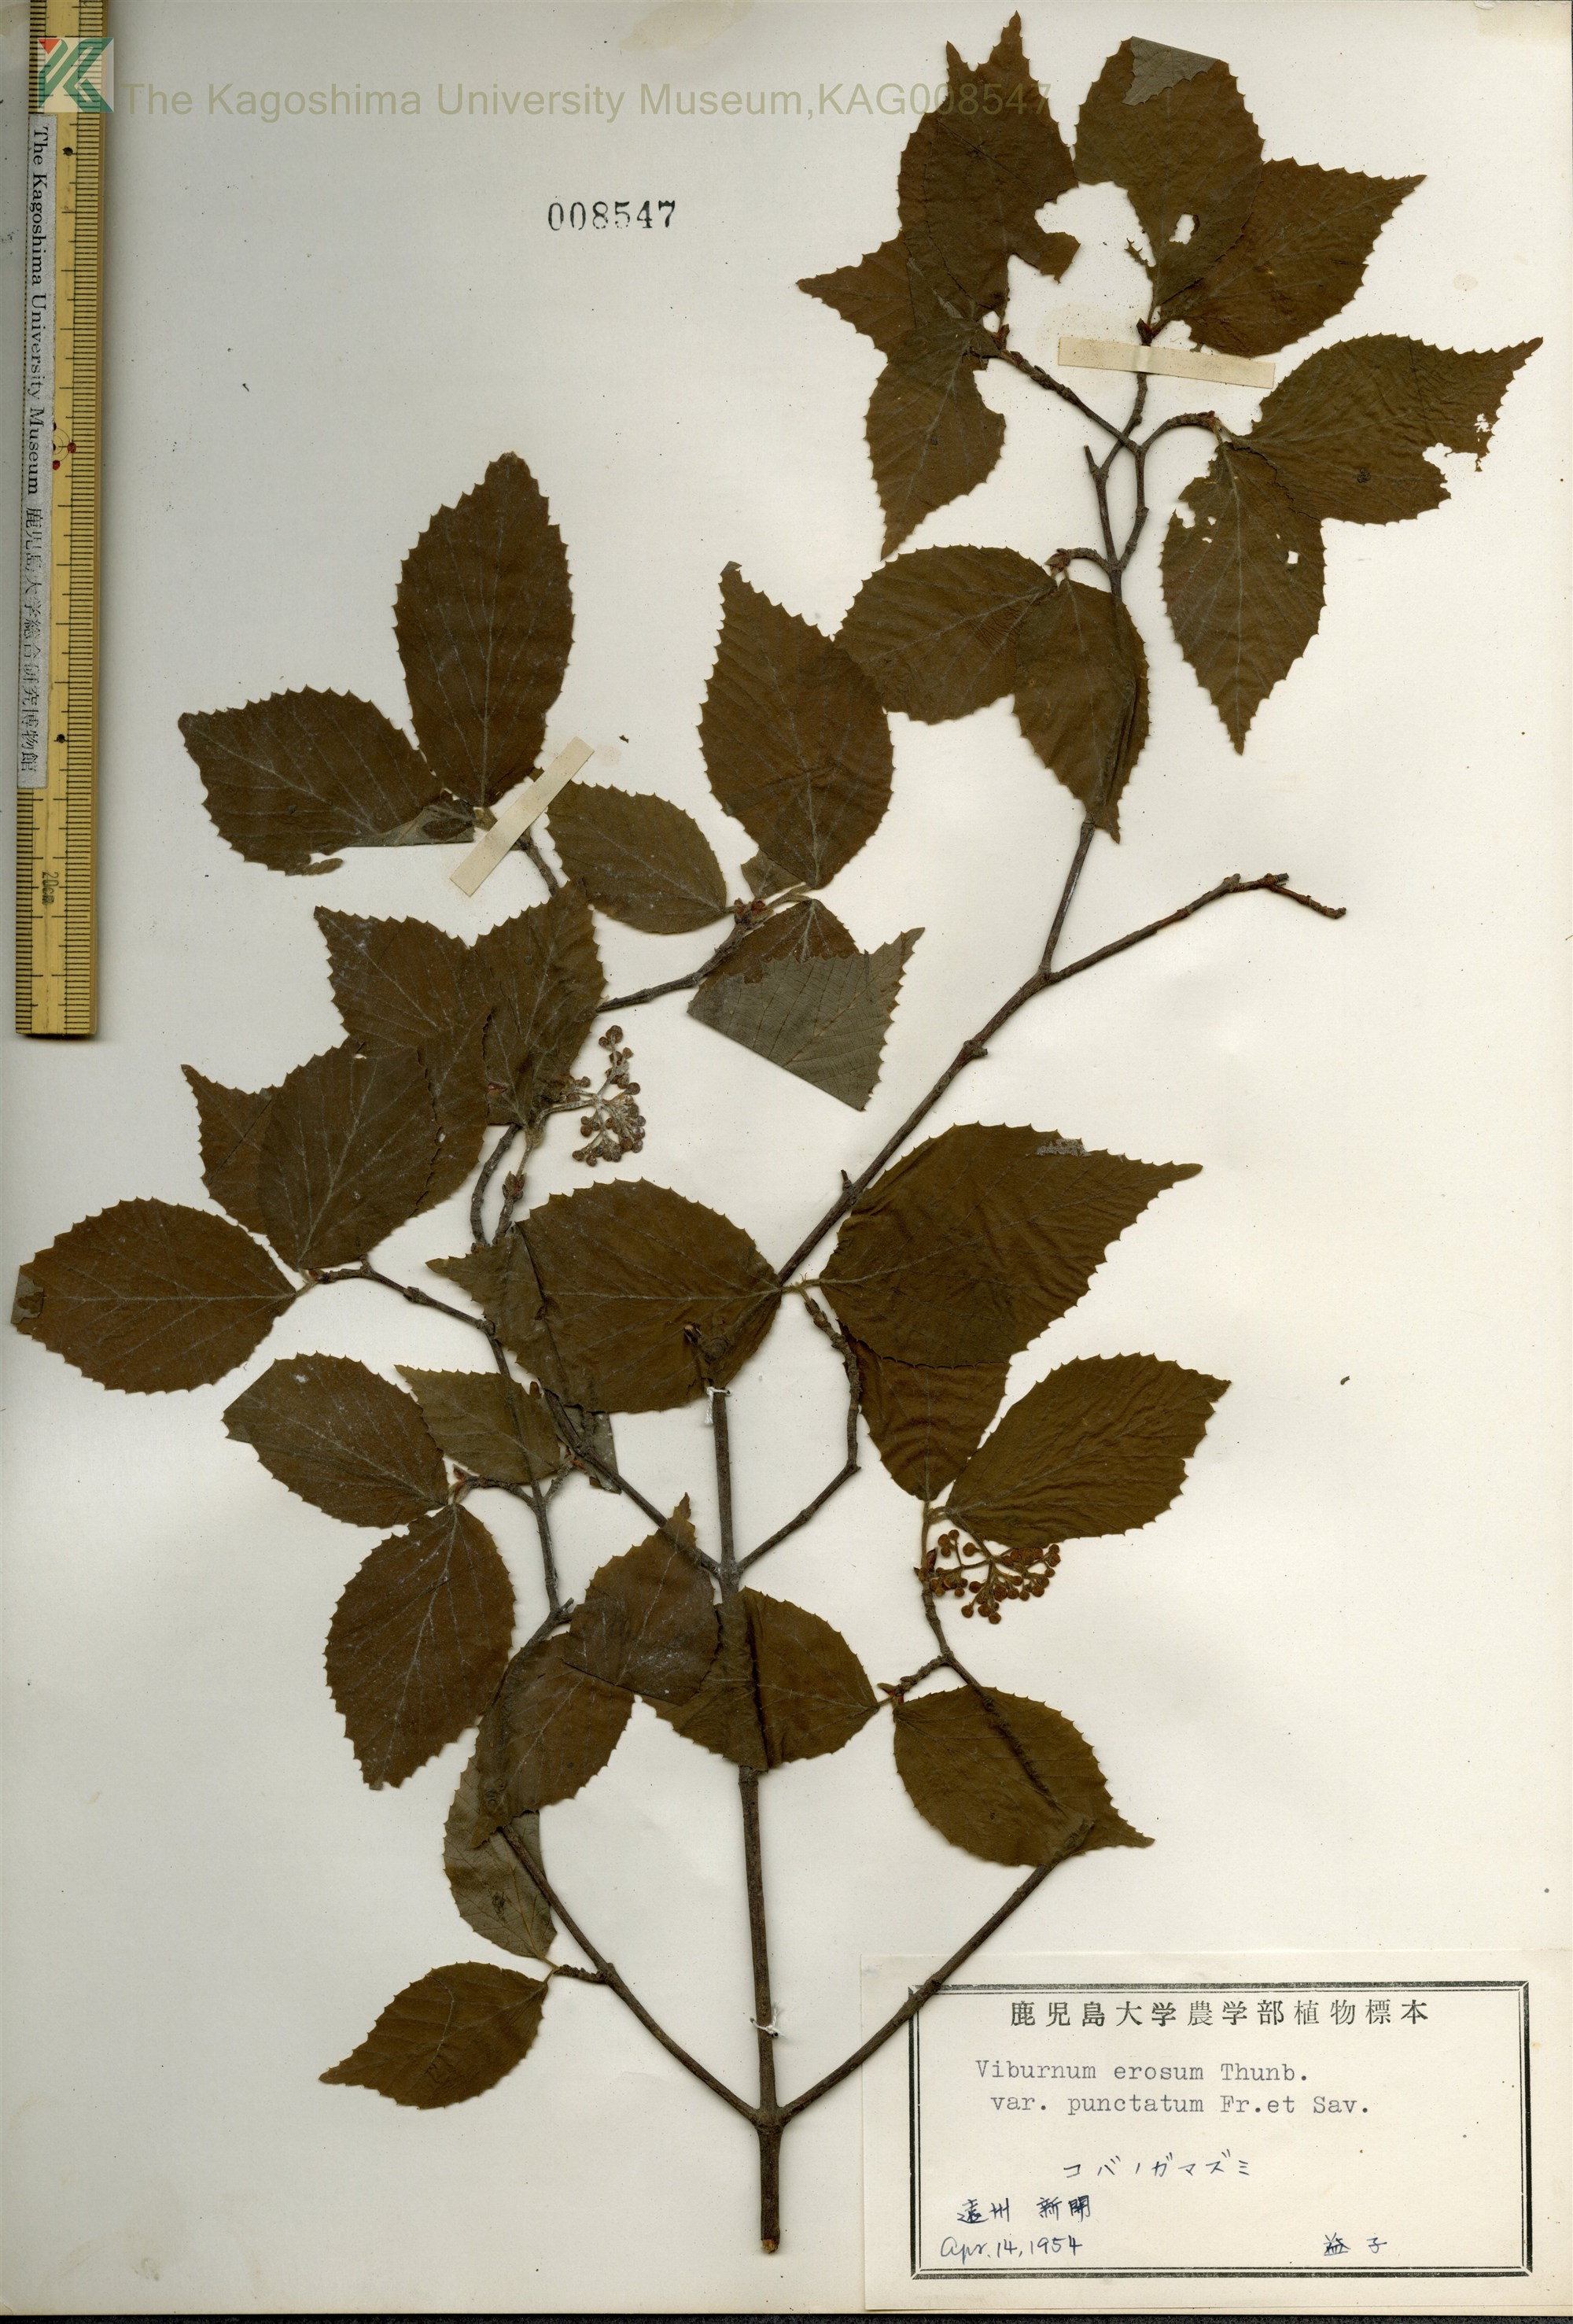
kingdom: Plantae
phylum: Tracheophyta
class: Magnoliopsida
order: Dipsacales
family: Viburnaceae
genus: Viburnum
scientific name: Viburnum erosum
